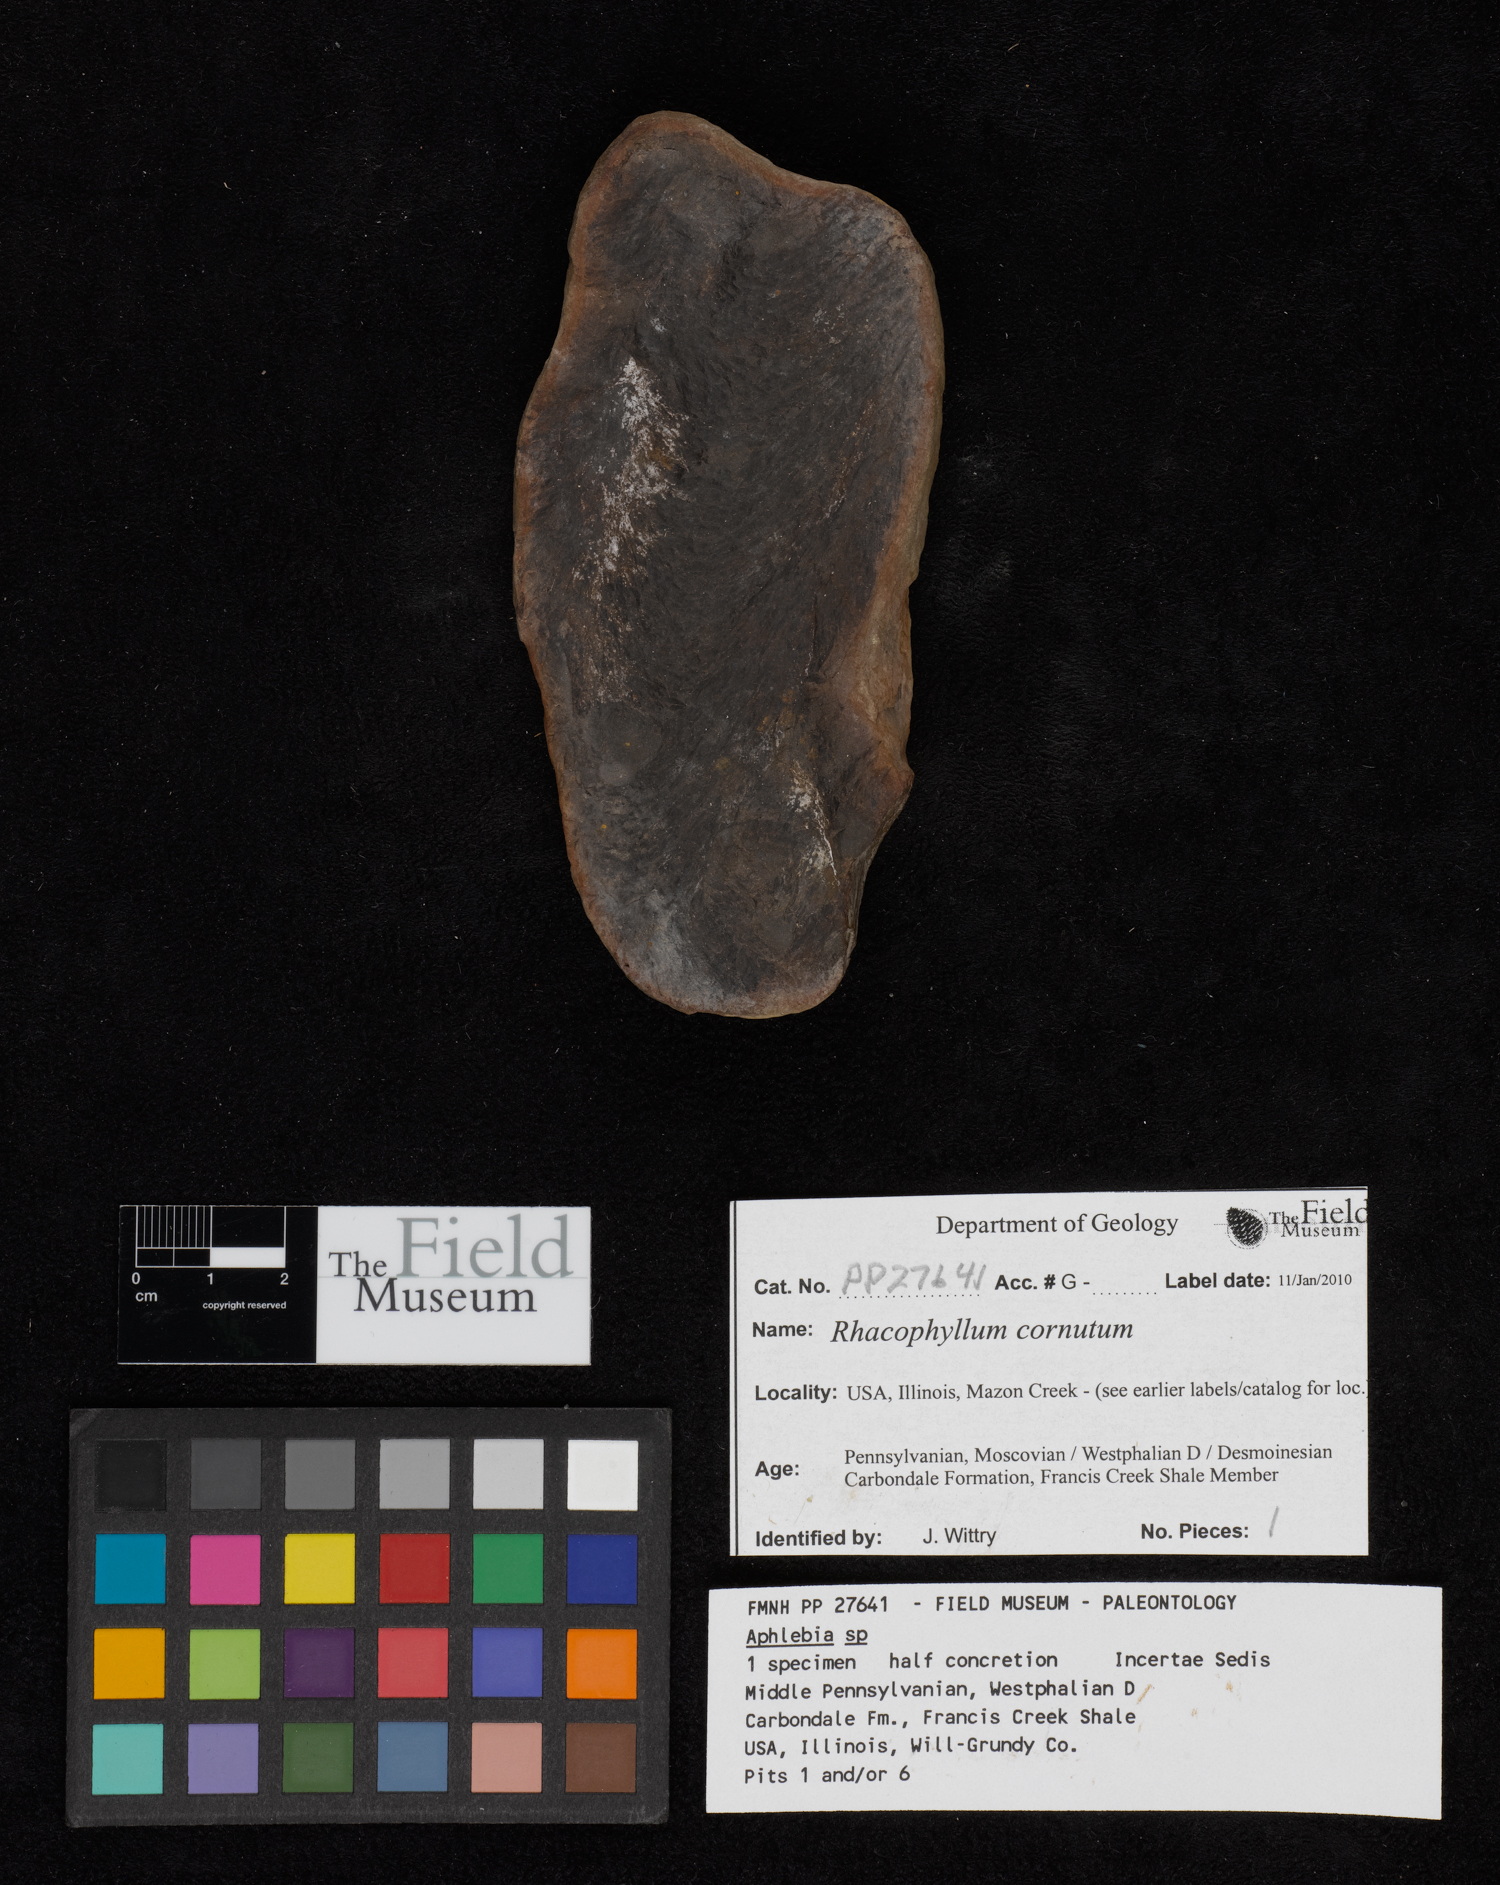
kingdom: Plantae
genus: Rhacophyllum
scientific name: Rhacophyllum
